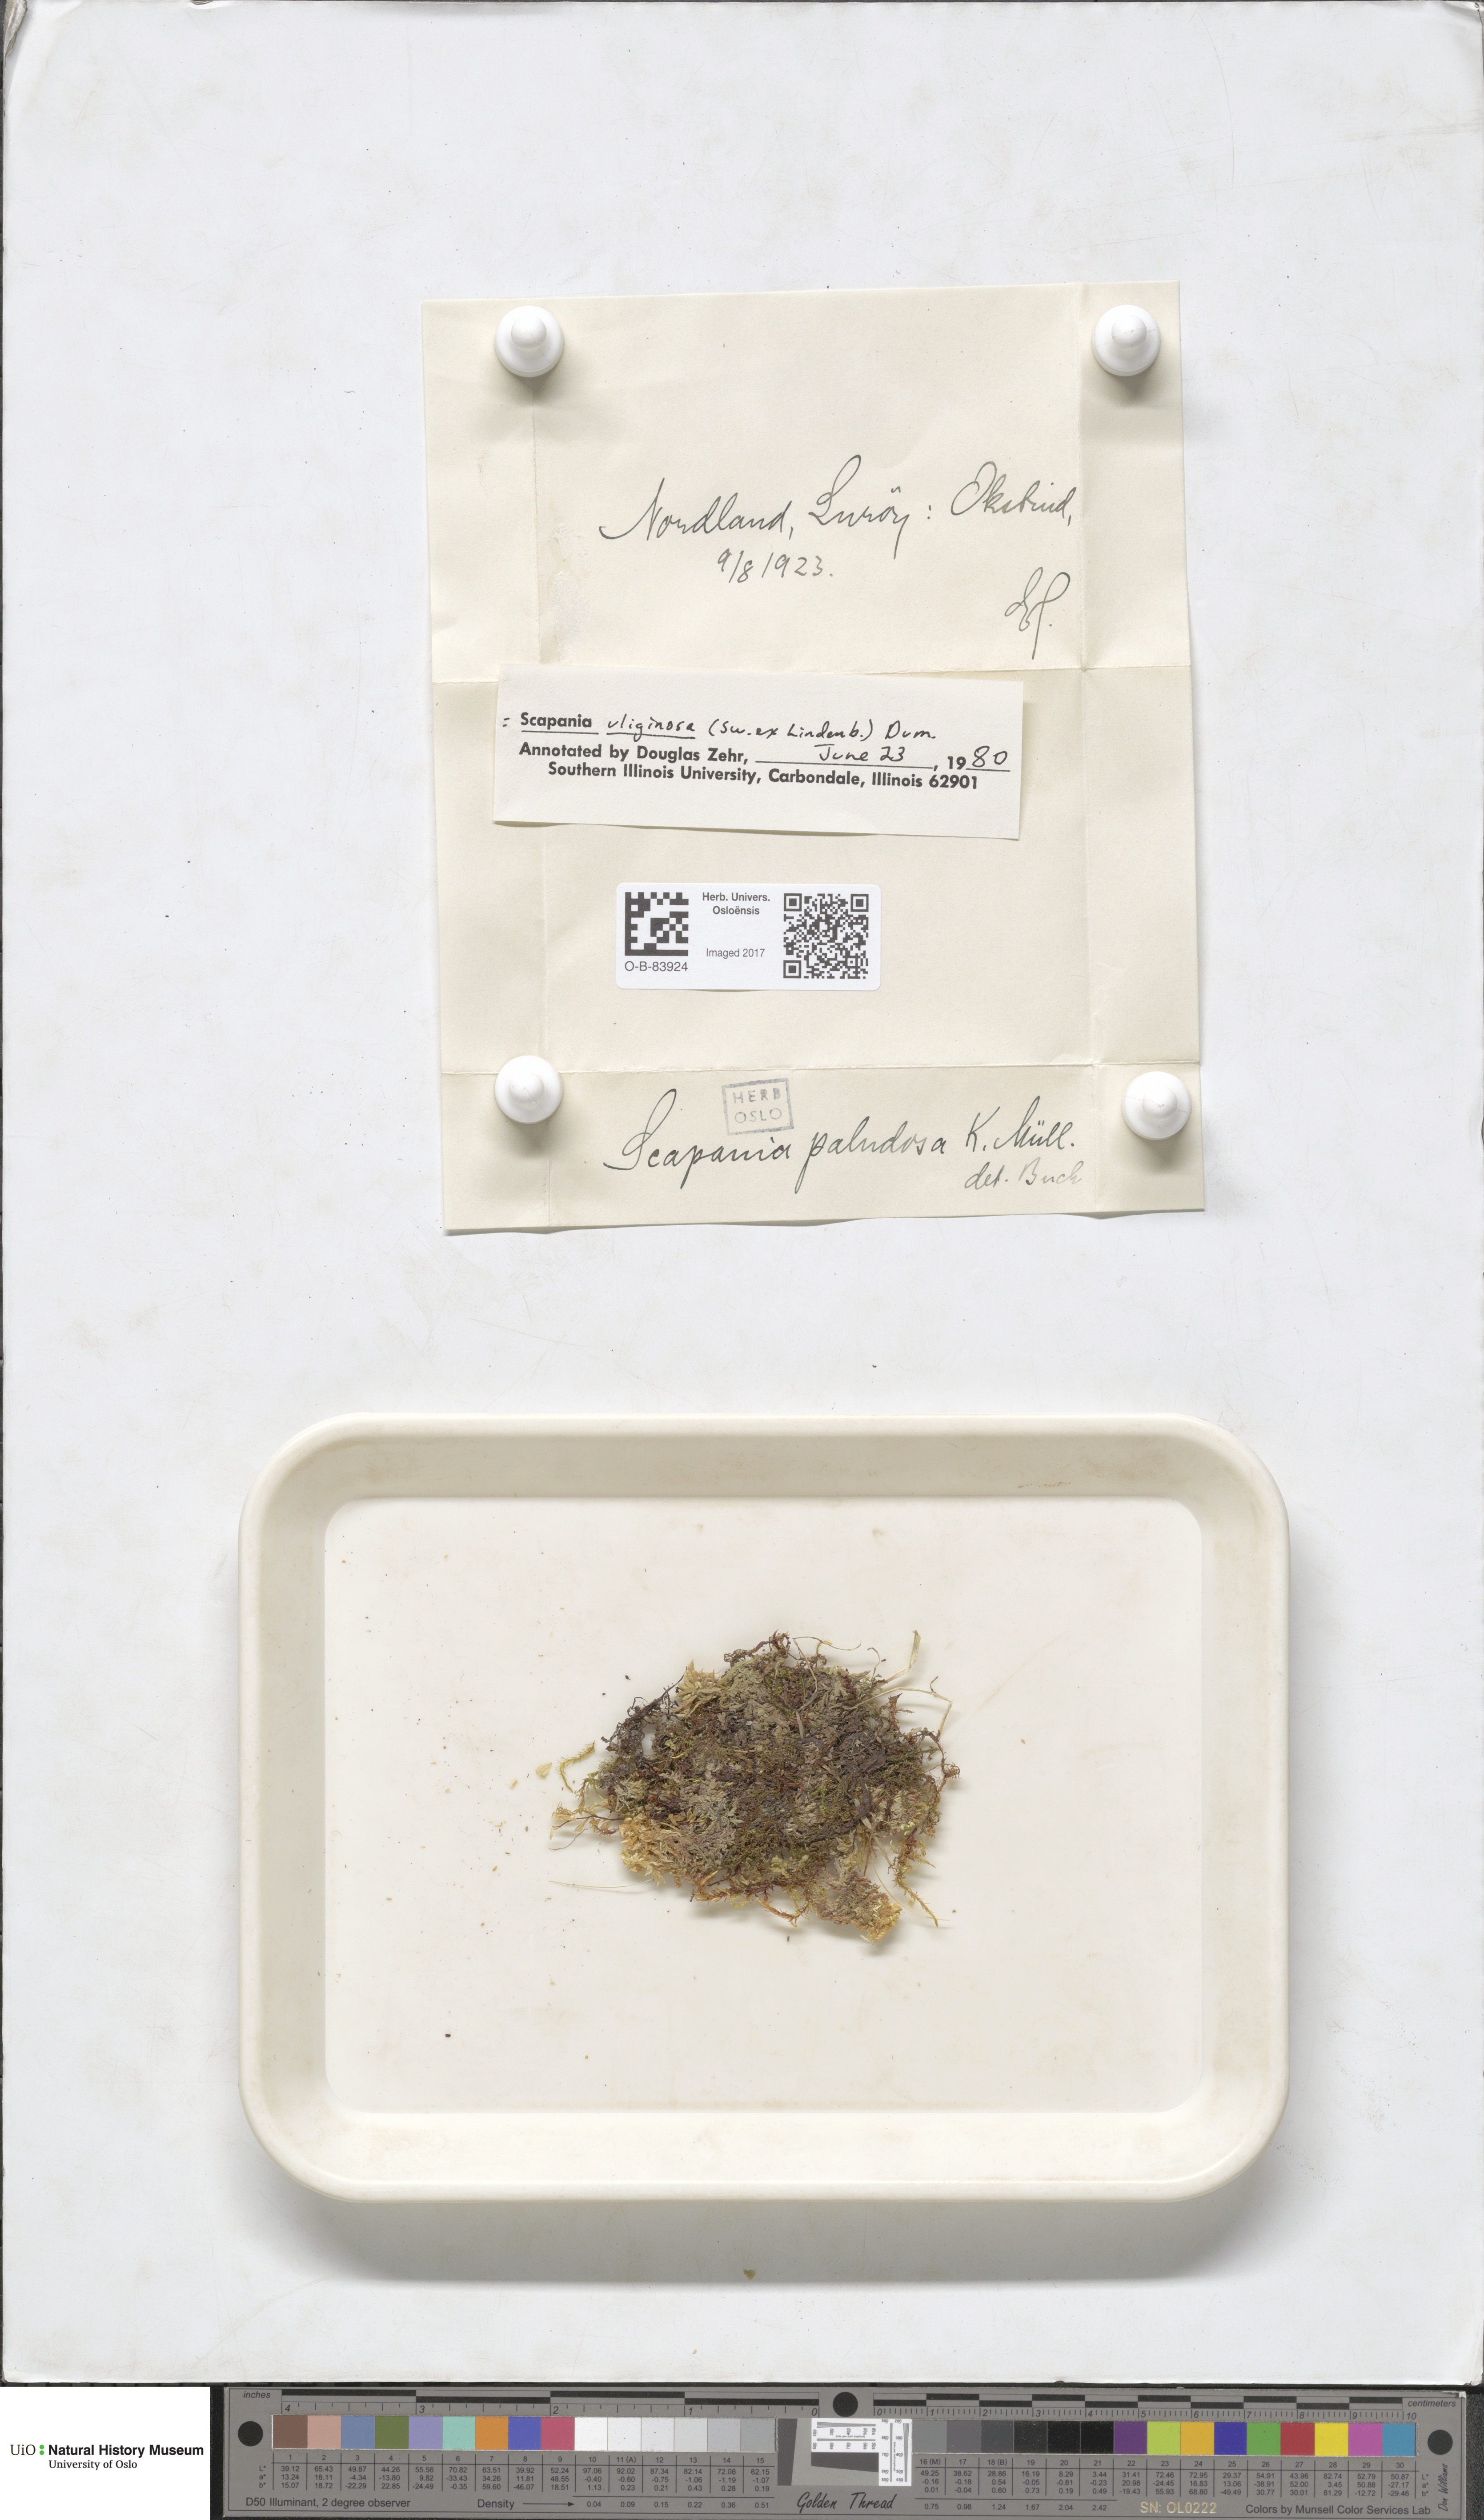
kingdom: Plantae
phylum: Marchantiophyta
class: Jungermanniopsida
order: Jungermanniales
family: Scapaniaceae
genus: Scapania
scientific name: Scapania uliginosa
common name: Marsh earwort
